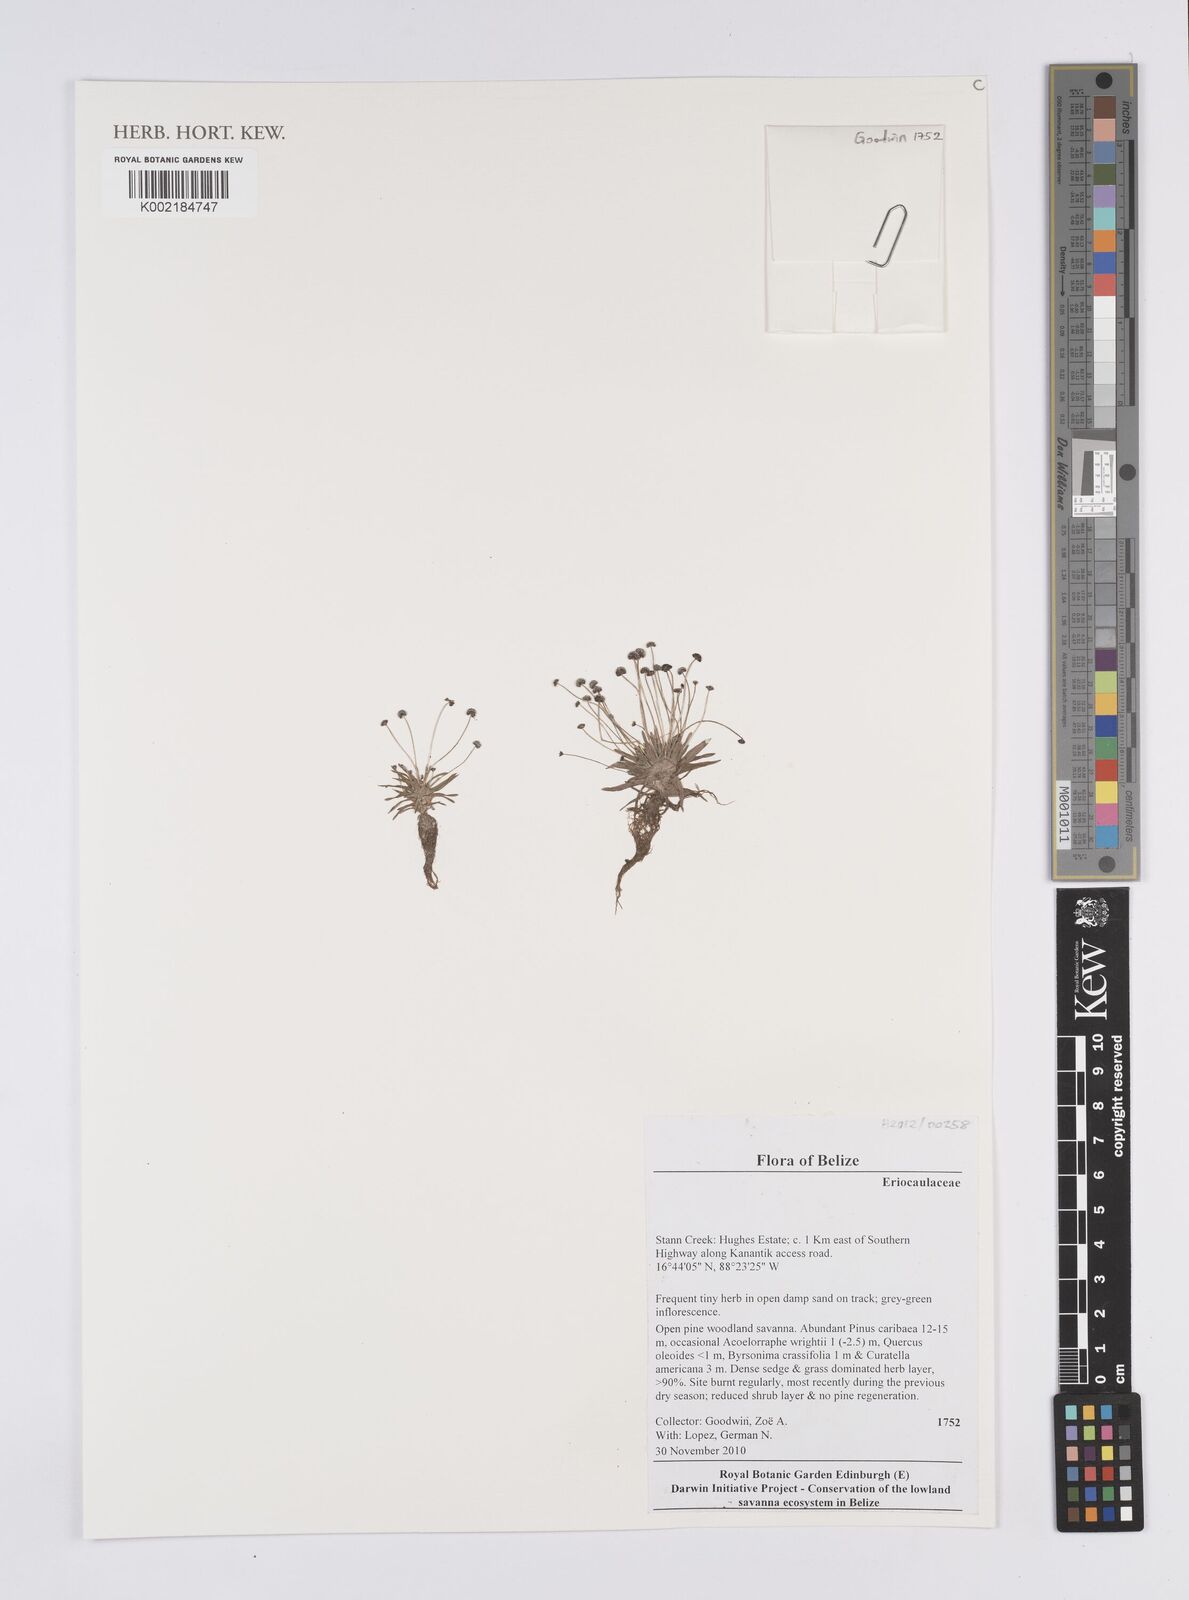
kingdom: Plantae
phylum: Tracheophyta
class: Liliopsida
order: Poales
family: Eriocaulaceae
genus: Eriocaulon
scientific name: Eriocaulon
